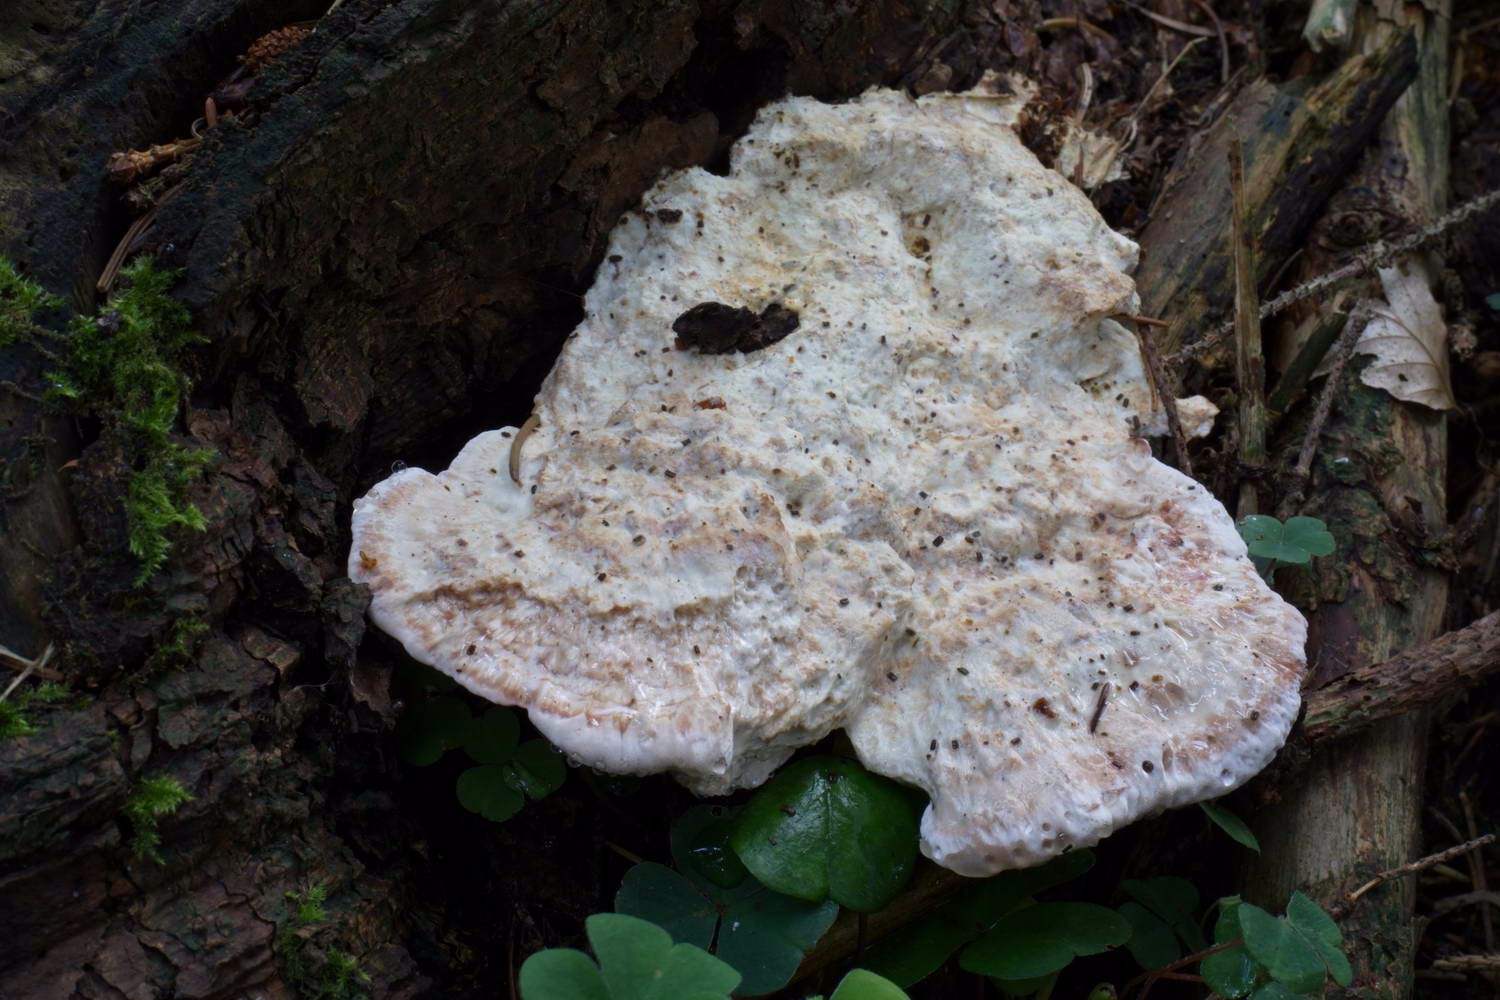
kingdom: Fungi
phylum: Basidiomycota
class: Agaricomycetes
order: Polyporales
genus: Calcipostia
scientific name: Calcipostia guttulata
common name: dråbe-kødporesvamp
